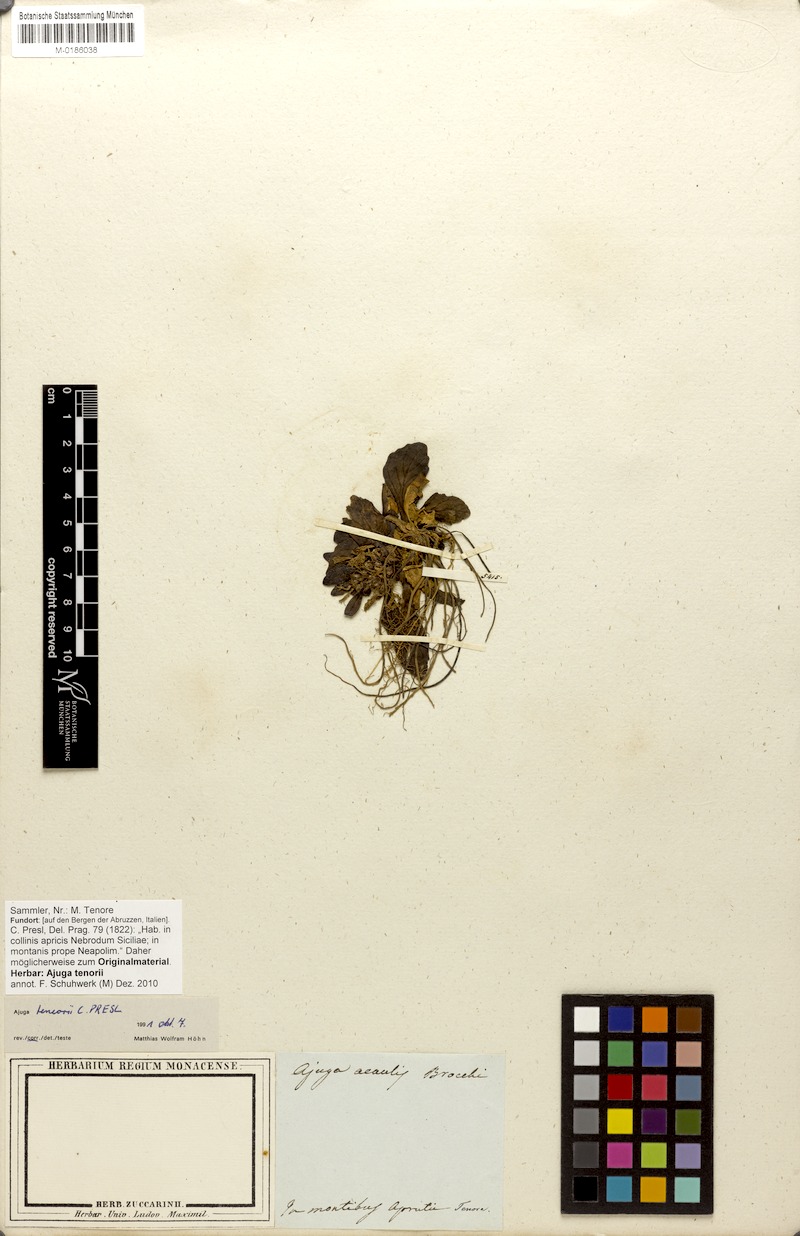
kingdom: Plantae
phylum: Tracheophyta
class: Magnoliopsida
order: Lamiales
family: Lamiaceae
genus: Ajuga
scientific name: Ajuga tenorei
